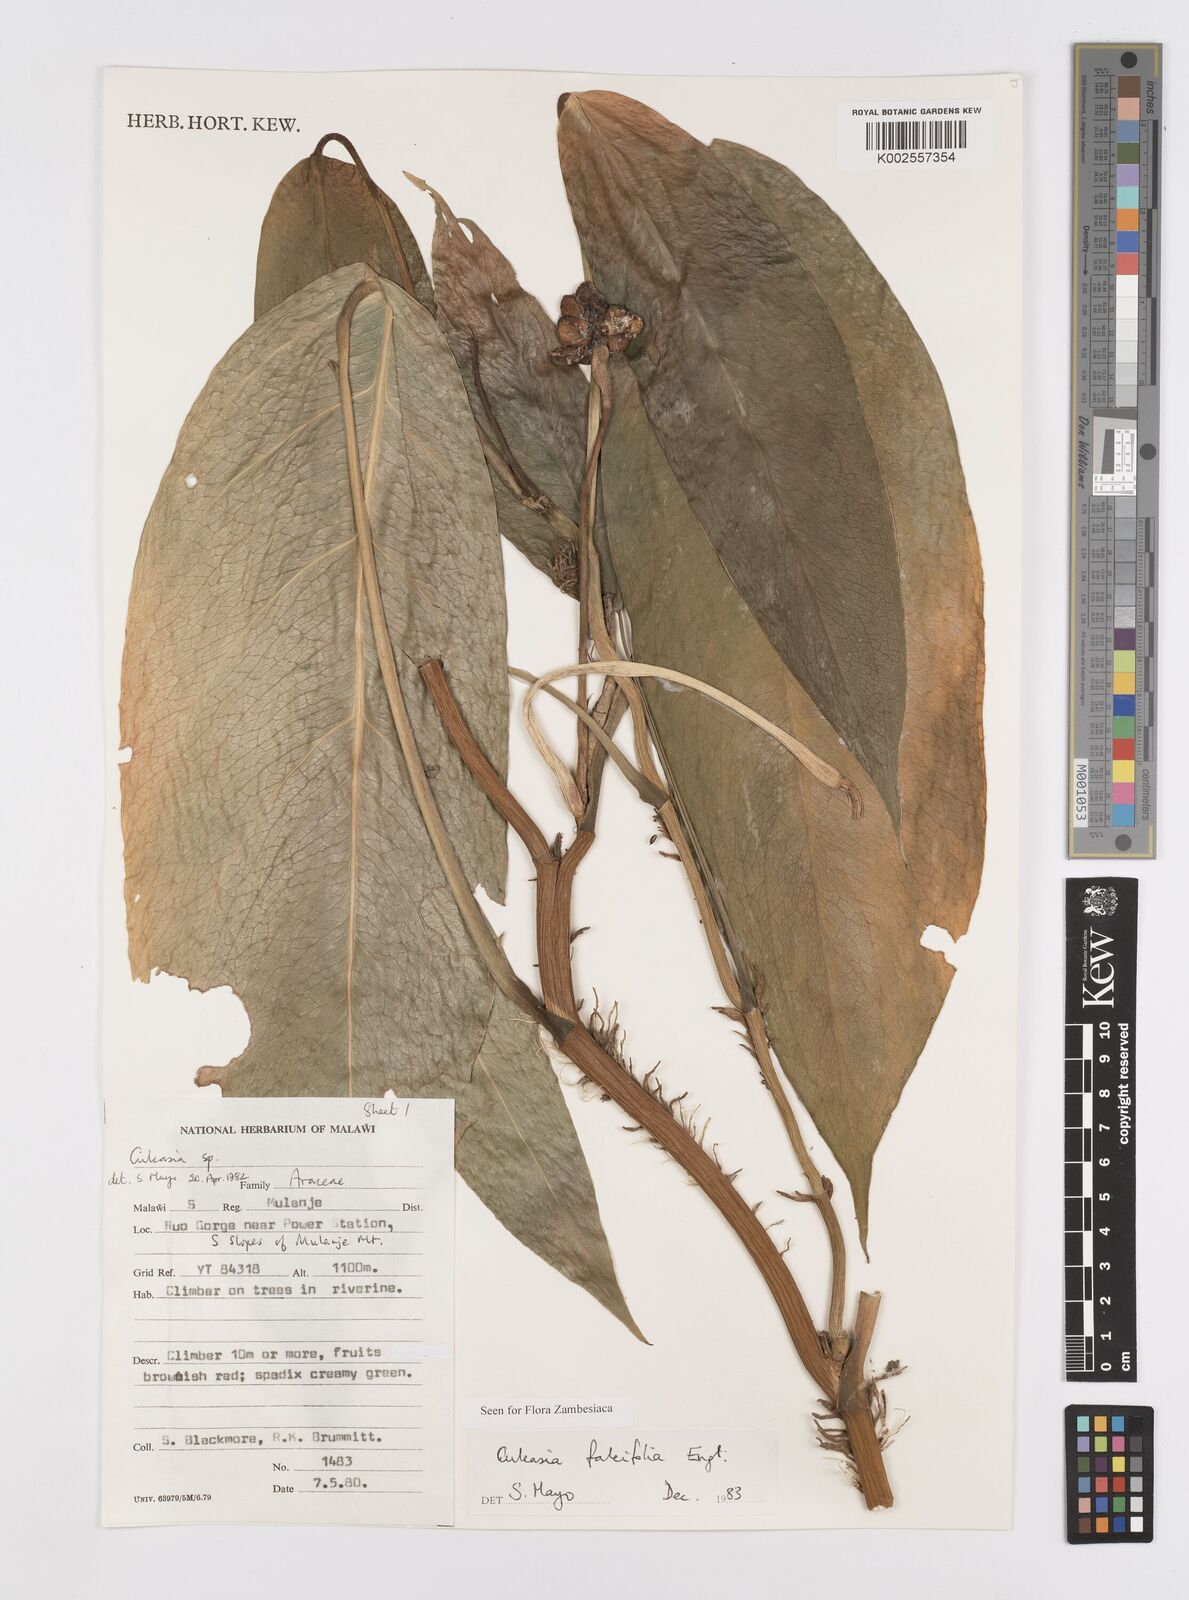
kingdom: Plantae
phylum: Tracheophyta
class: Liliopsida
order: Alismatales
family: Araceae
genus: Culcasia
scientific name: Culcasia falcifolia
